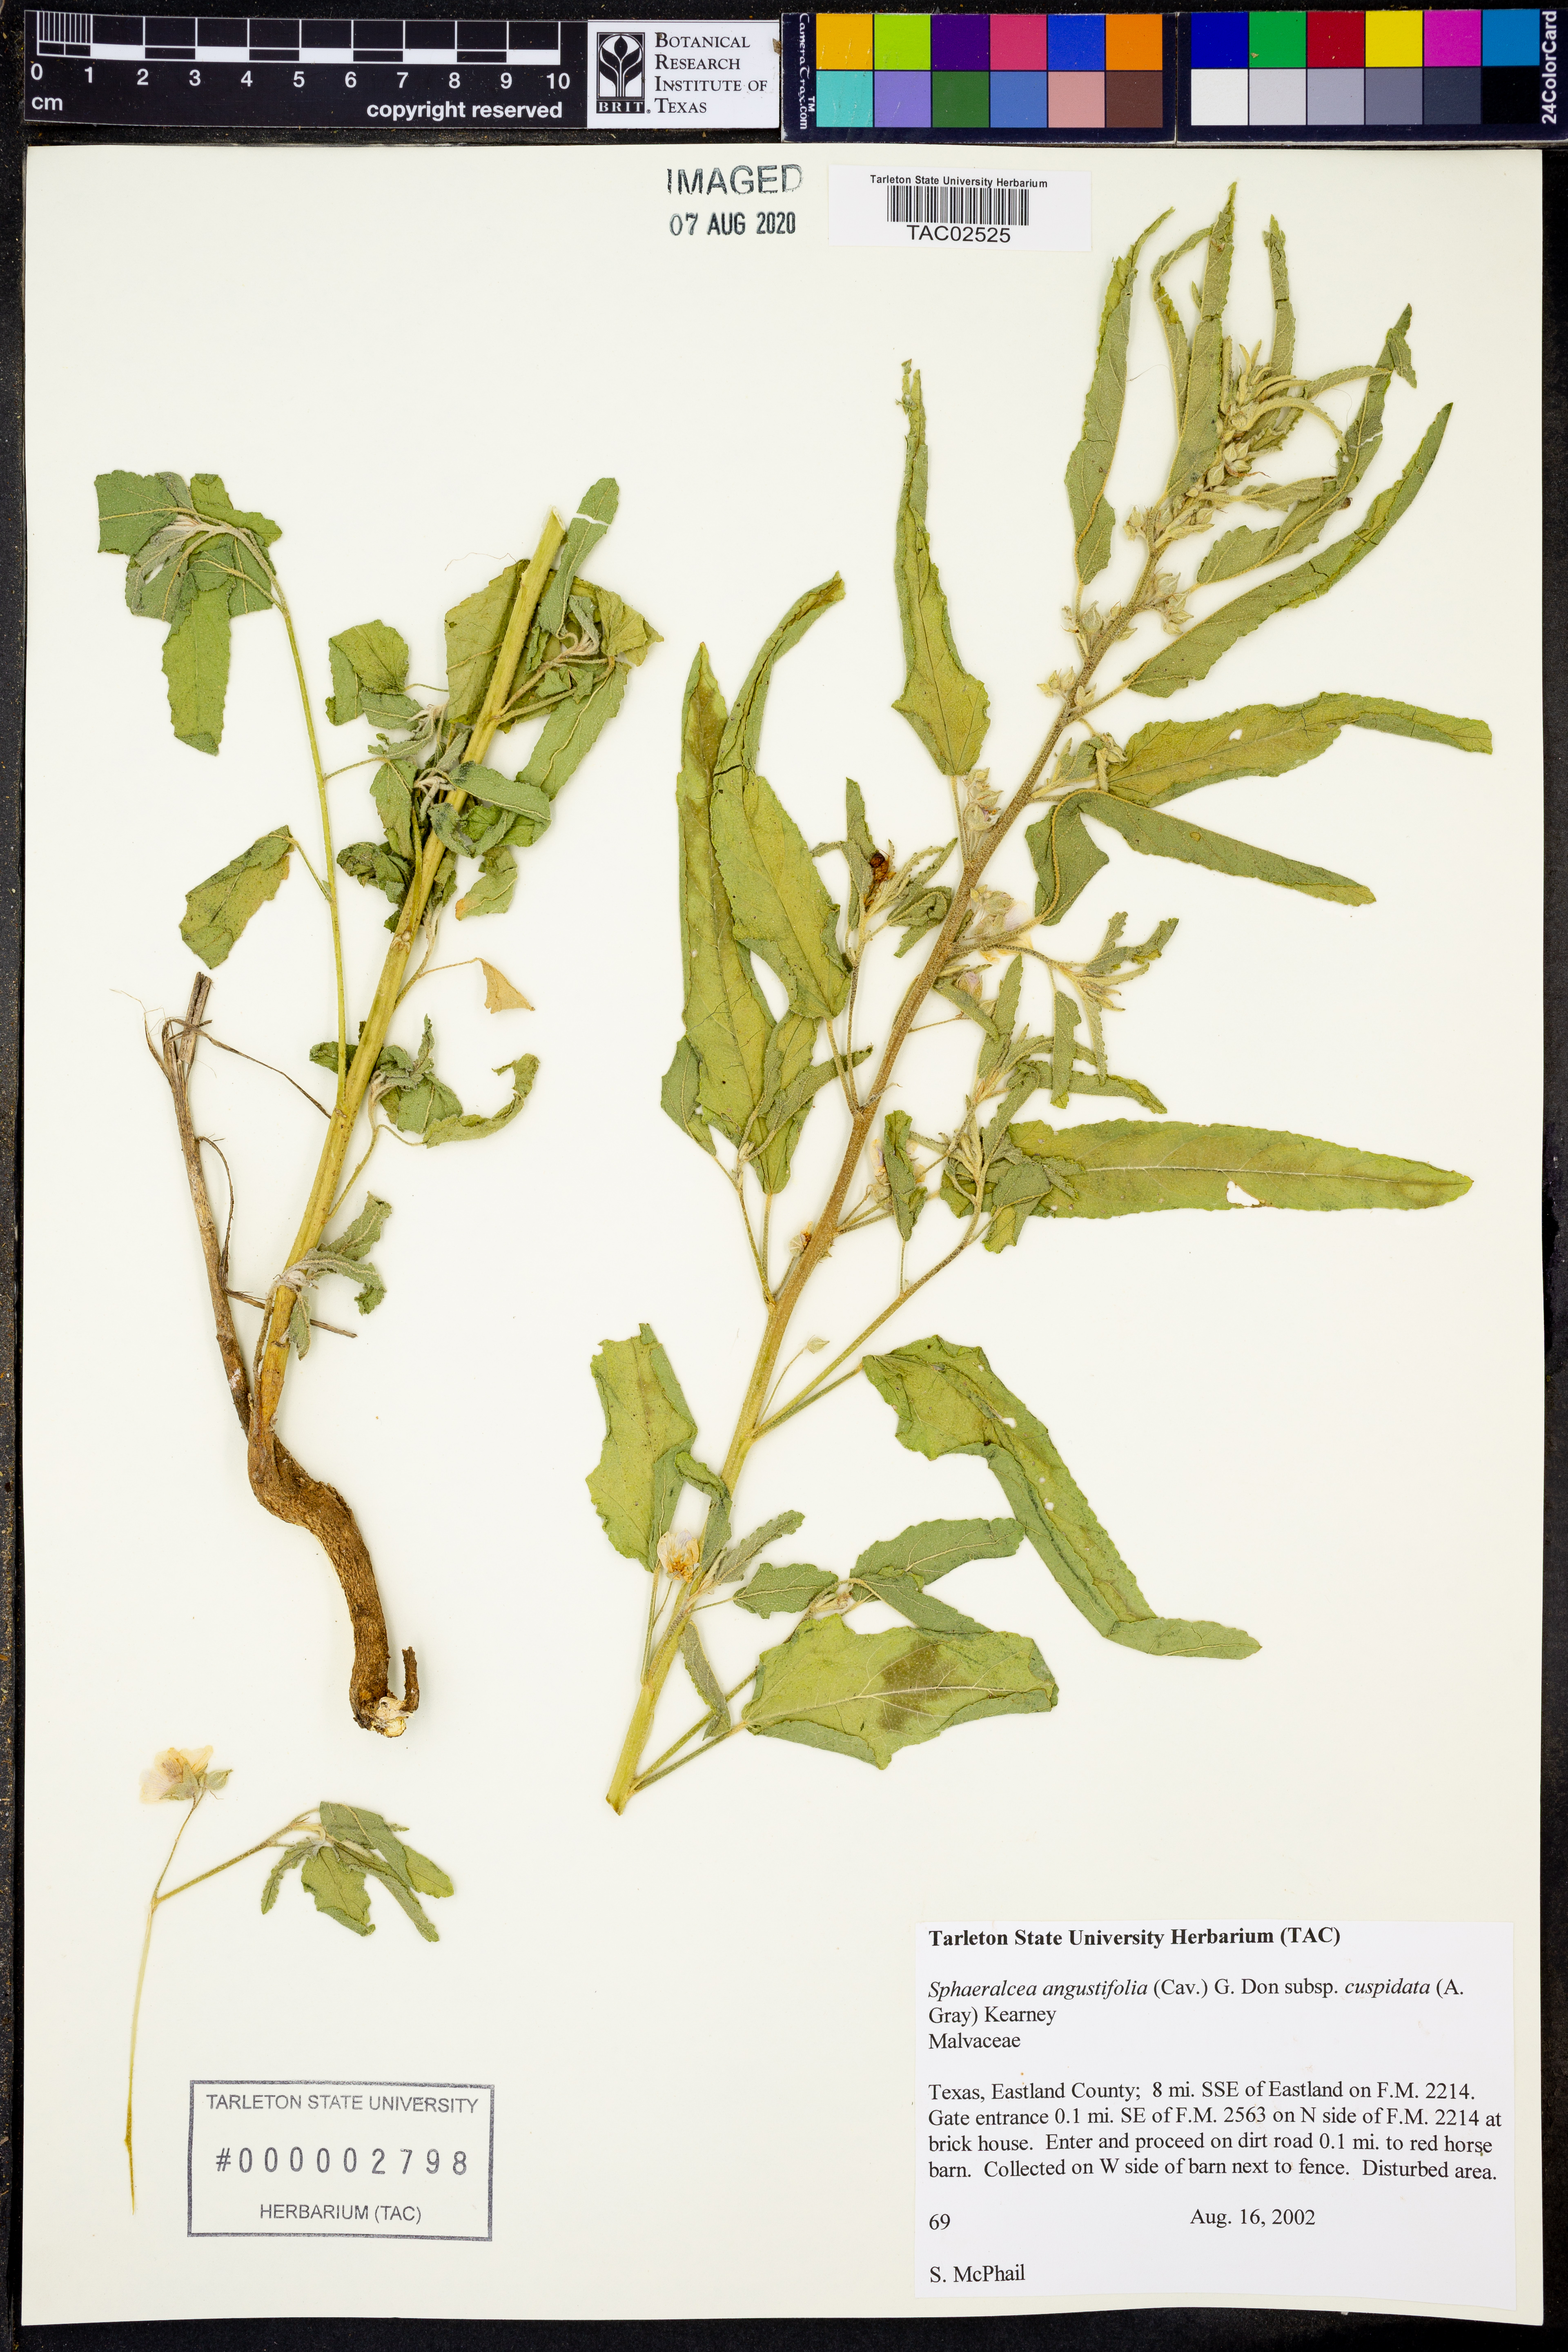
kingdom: Plantae
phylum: Tracheophyta
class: Magnoliopsida
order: Malvales
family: Malvaceae
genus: Sphaeralcea
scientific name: Sphaeralcea angustifolia
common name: Copper globe-mallow
